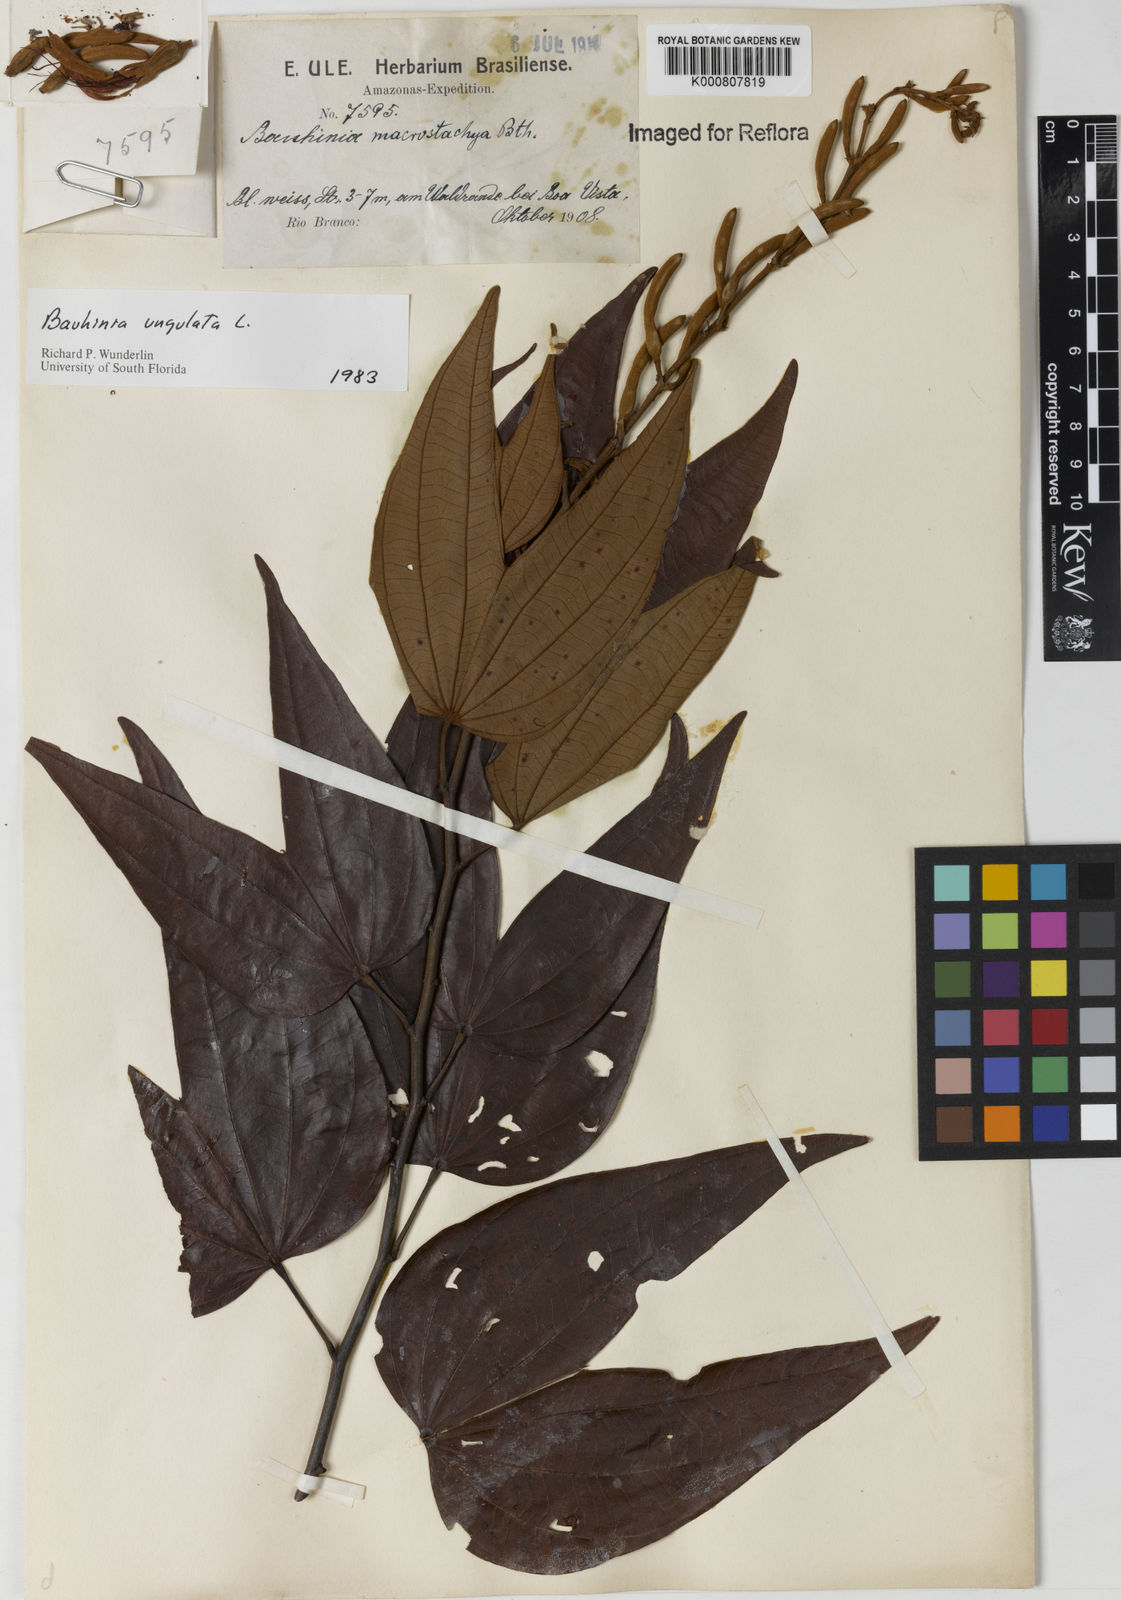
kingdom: Plantae
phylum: Tracheophyta
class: Magnoliopsida
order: Fabales
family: Fabaceae
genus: Bauhinia
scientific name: Bauhinia ungulata
